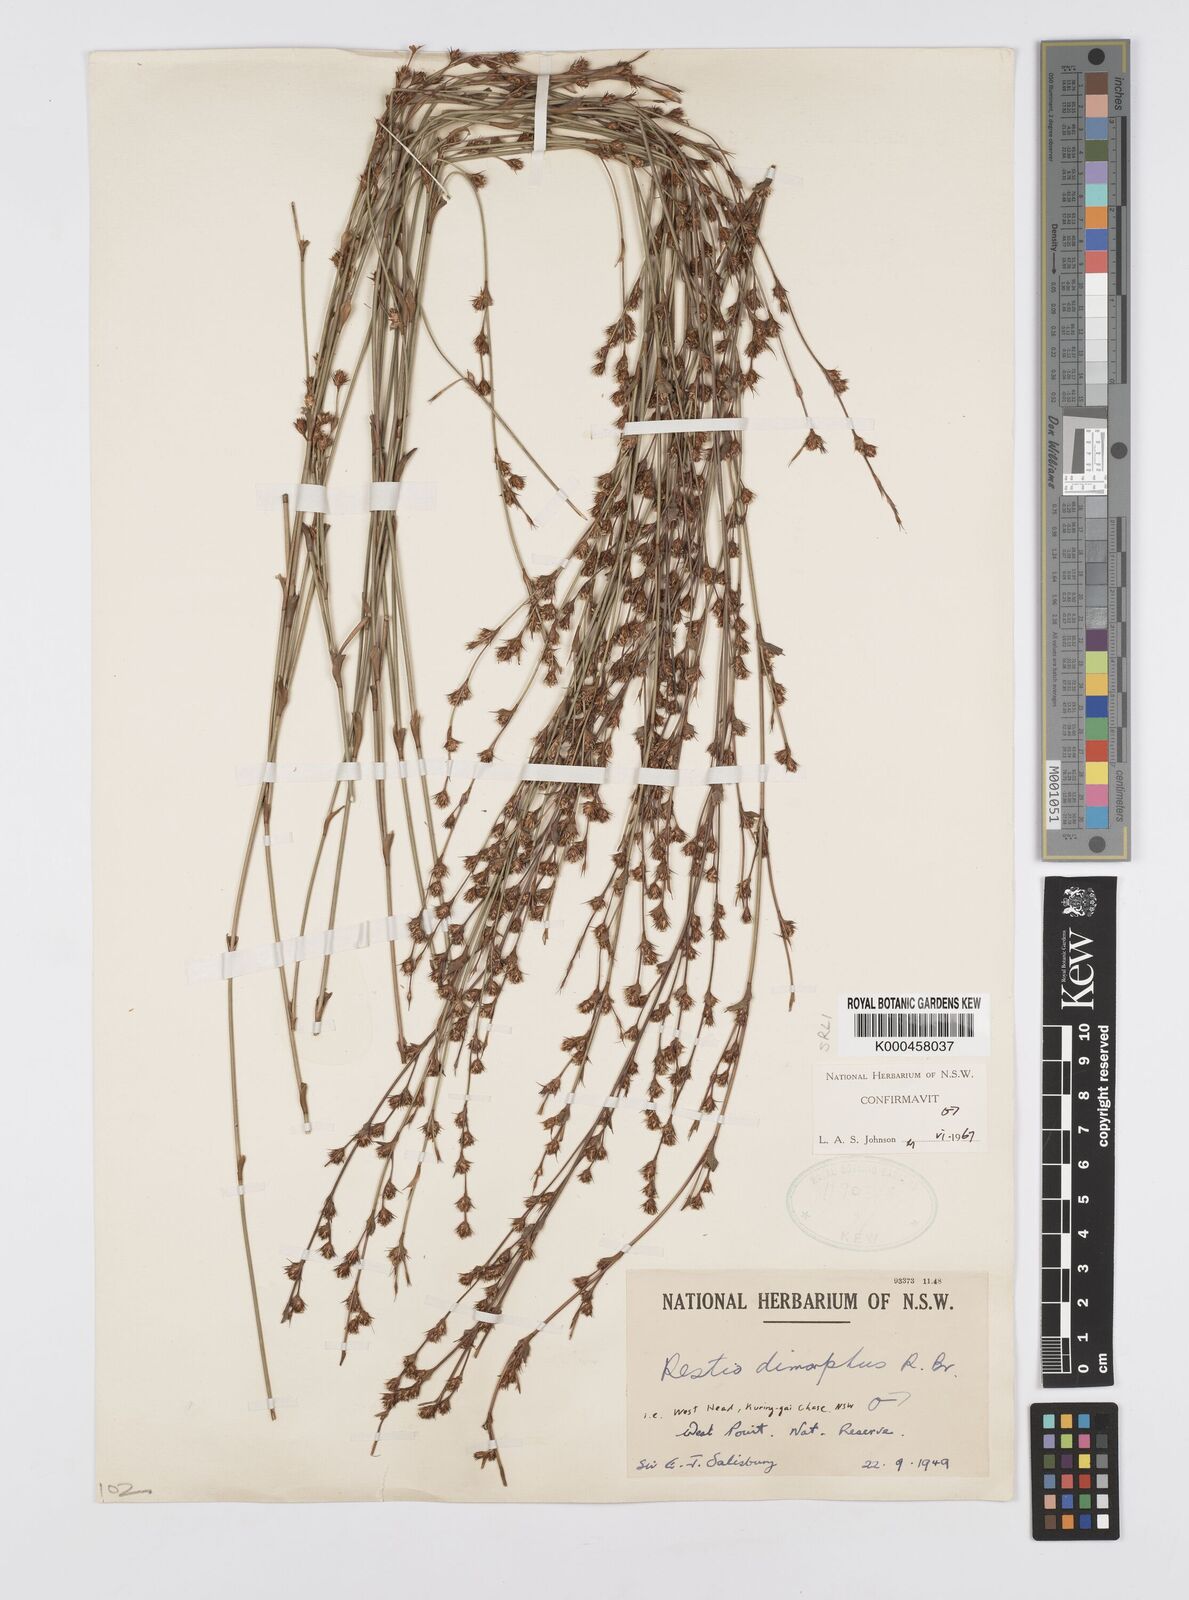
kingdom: Plantae
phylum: Tracheophyta
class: Liliopsida
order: Poales
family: Restionaceae
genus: Chordifex
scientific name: Chordifex dimorphus
